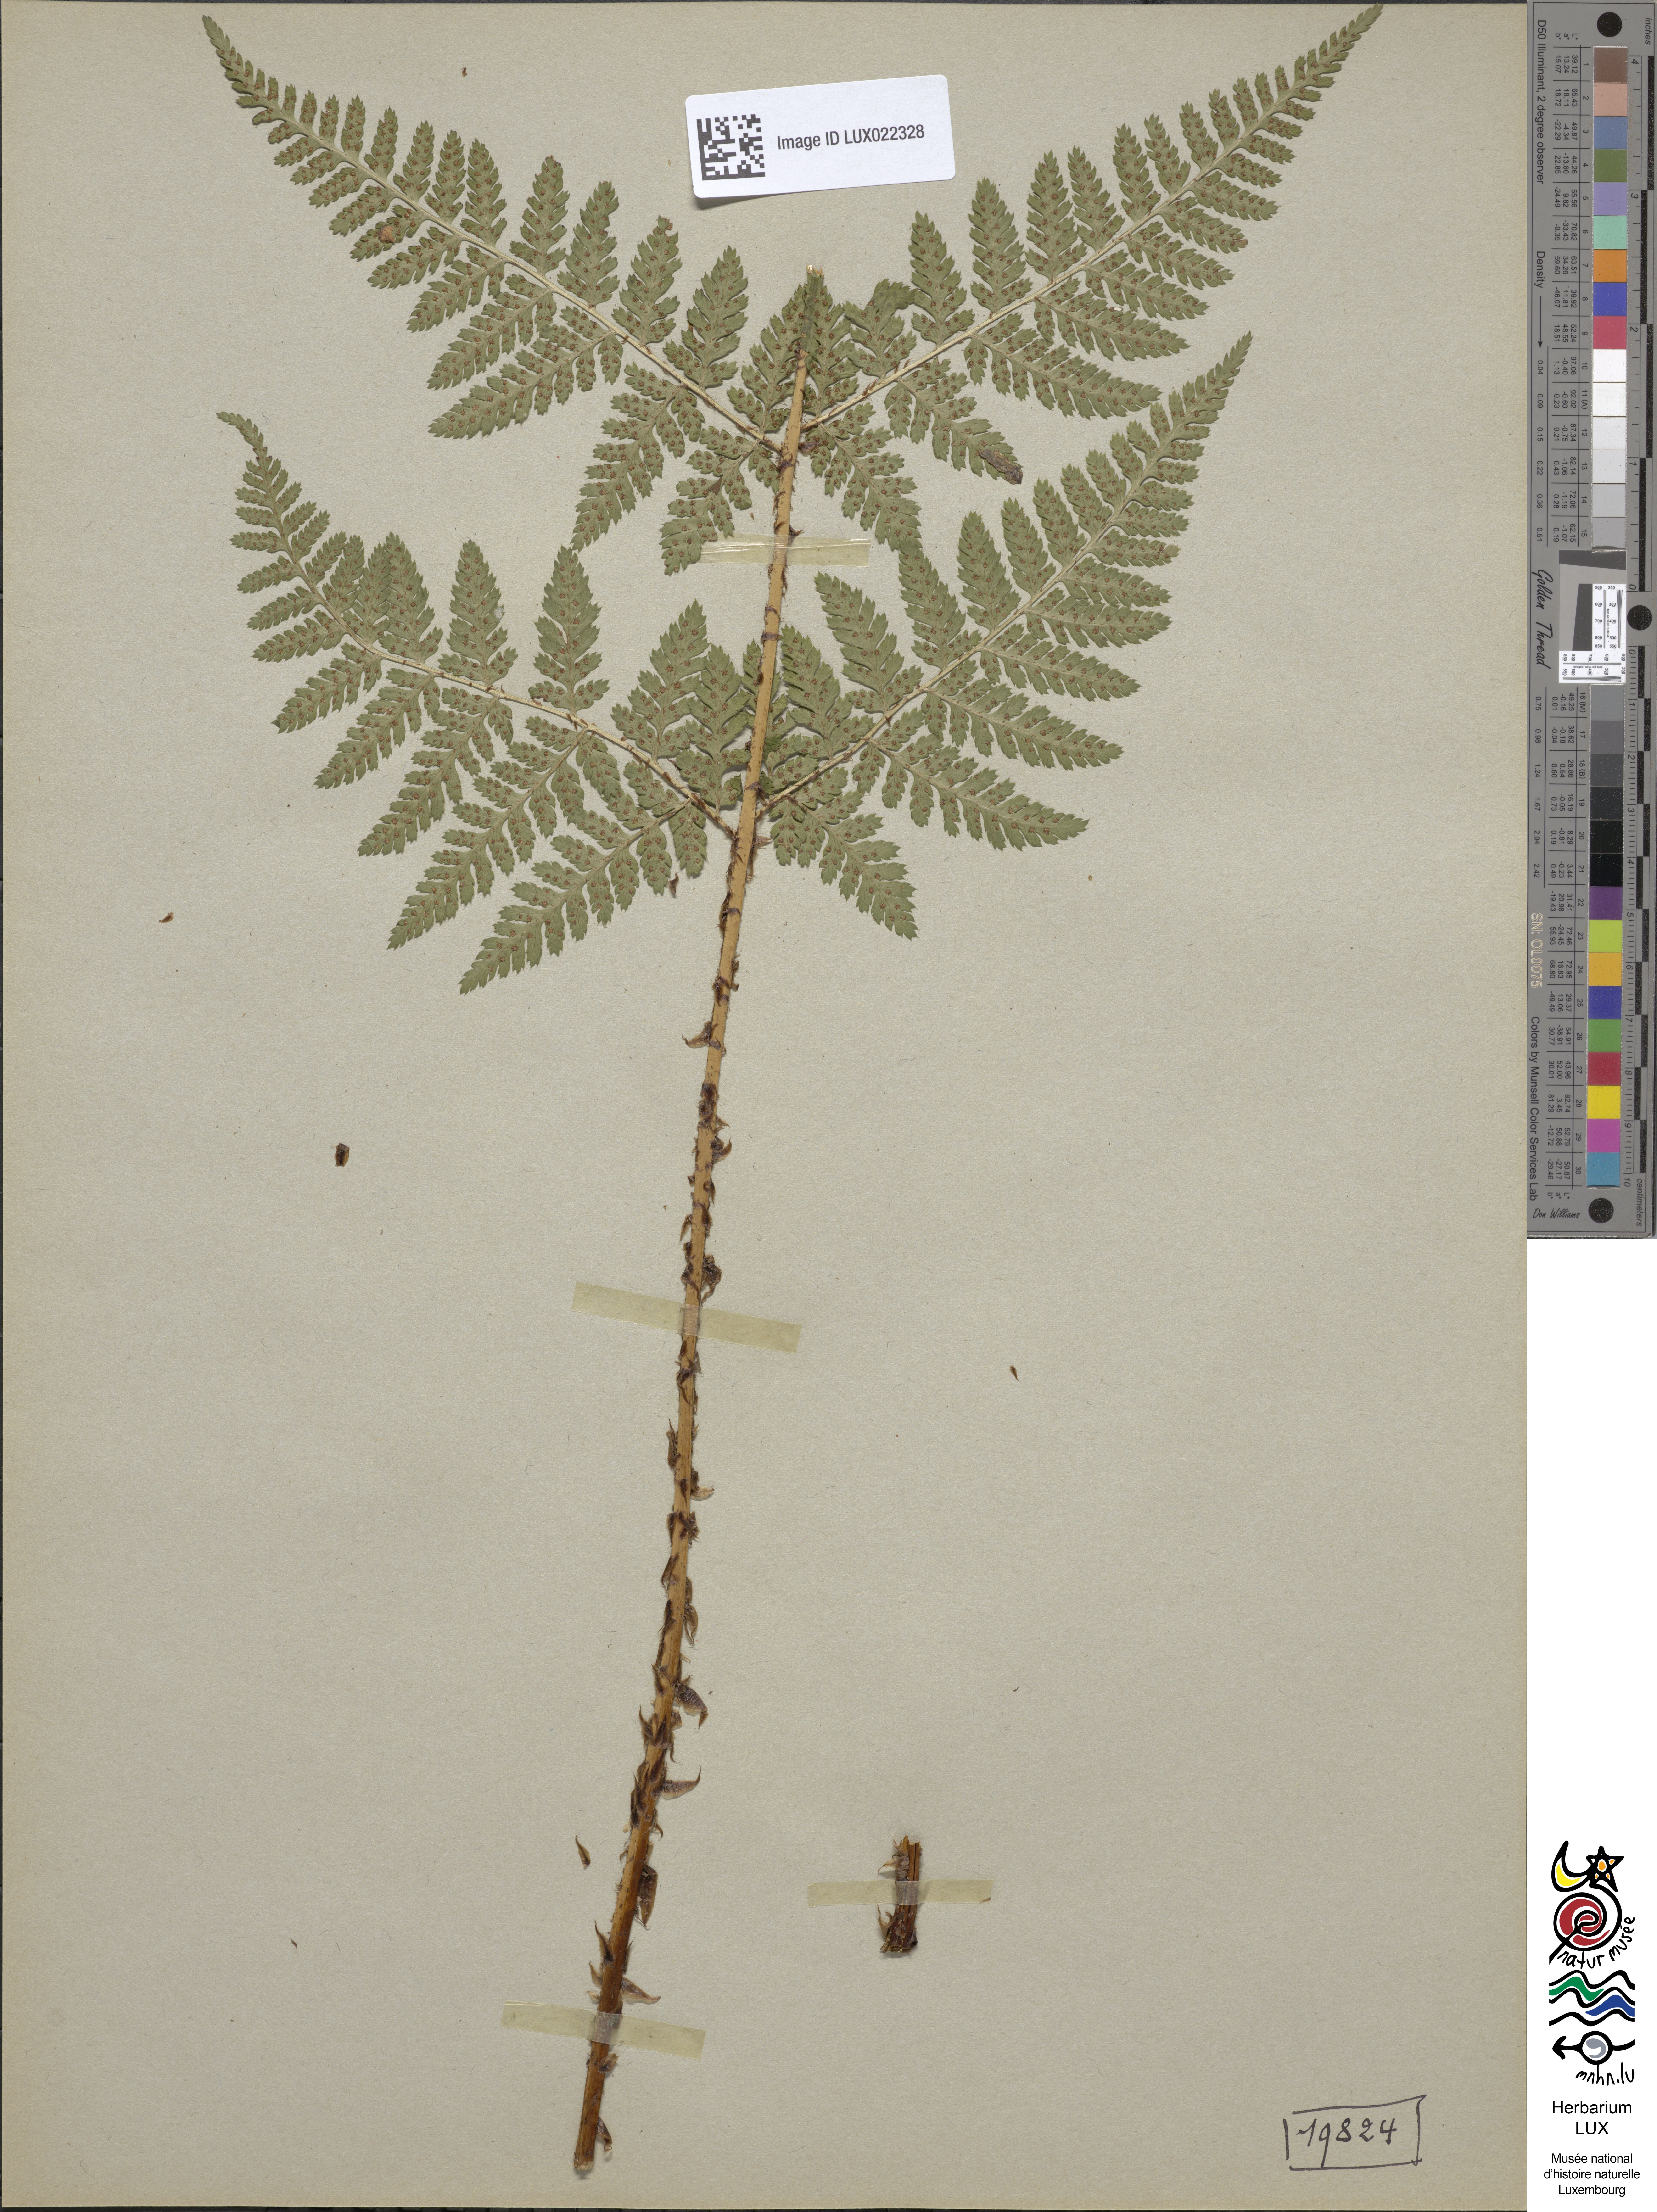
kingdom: Plantae
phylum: Tracheophyta
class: Polypodiopsida
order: Polypodiales
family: Dryopteridaceae
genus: Dryopteris
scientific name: Dryopteris dilatata
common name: Broad buckler-fern
